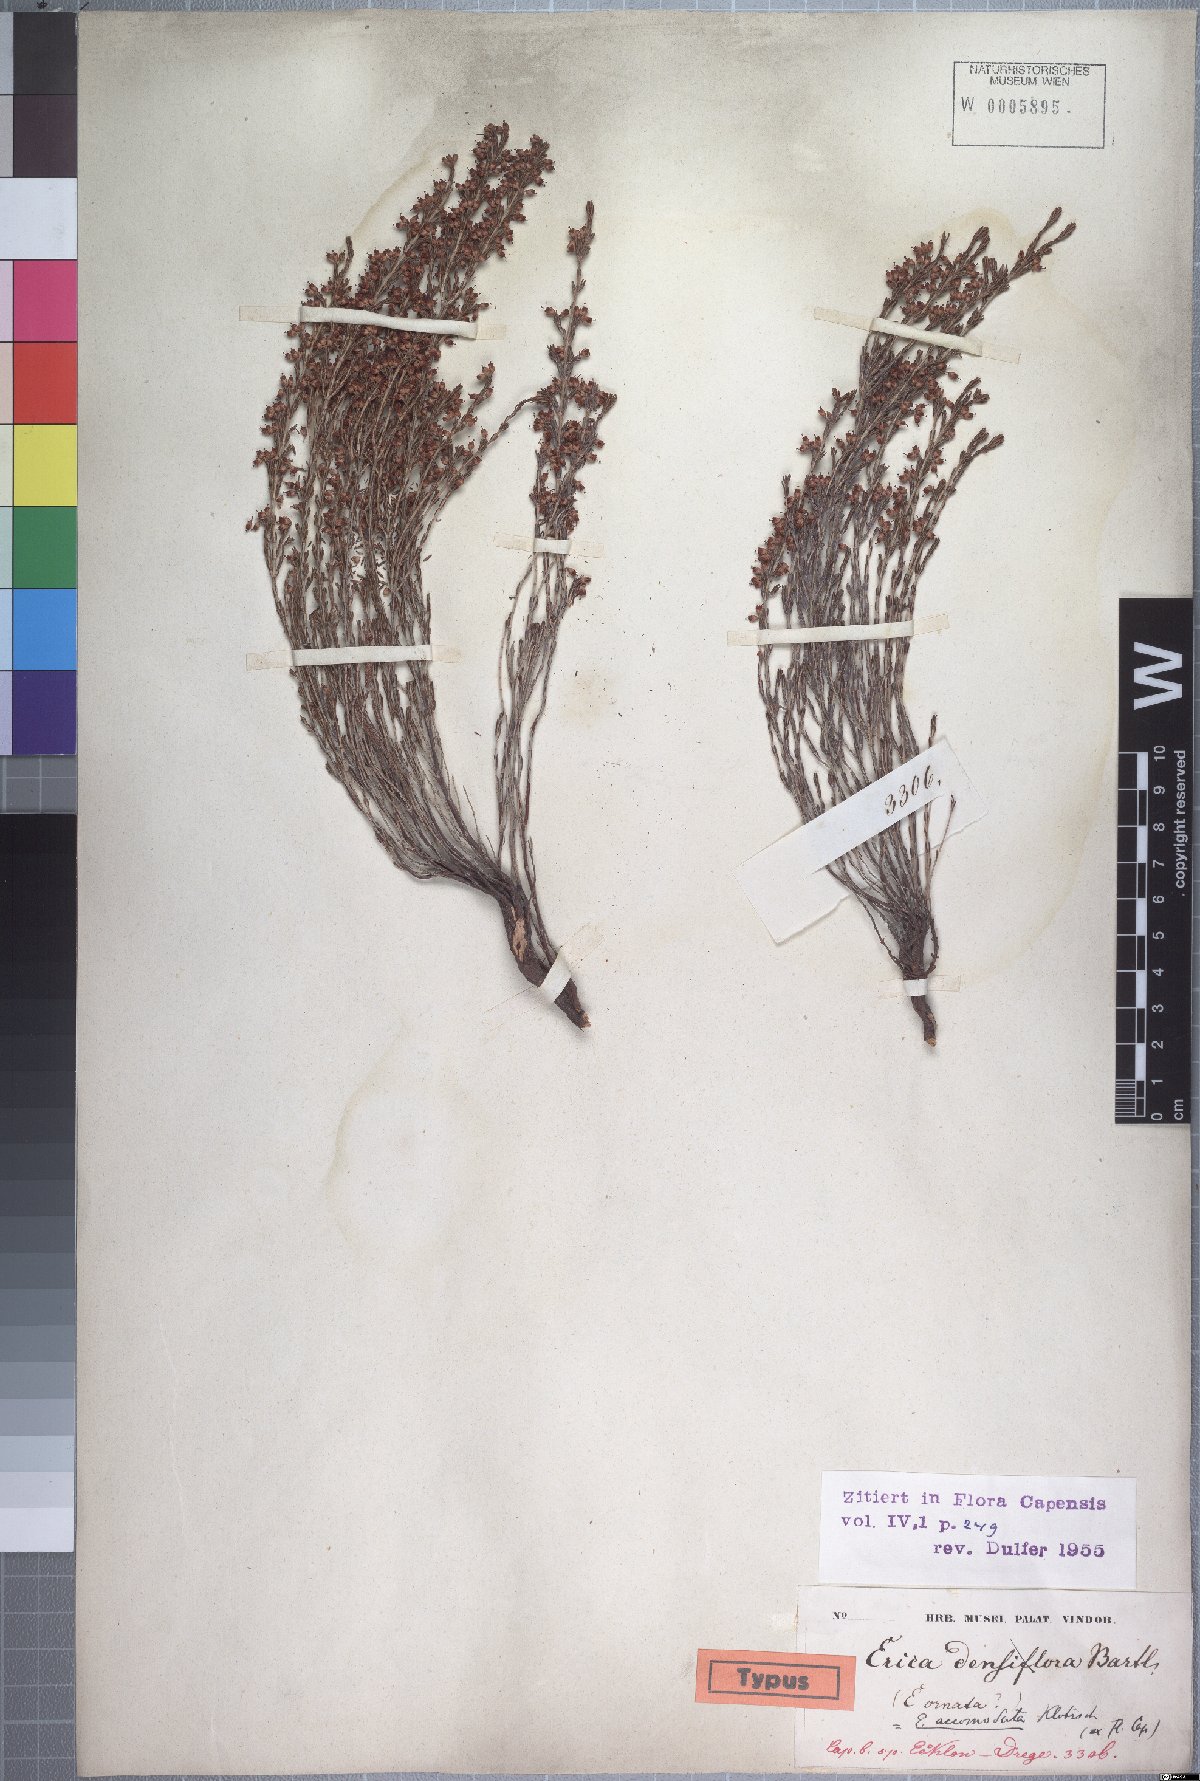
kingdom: Plantae
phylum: Tracheophyta
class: Magnoliopsida
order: Ericales
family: Ericaceae
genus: Erica
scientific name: Erica accommodata
